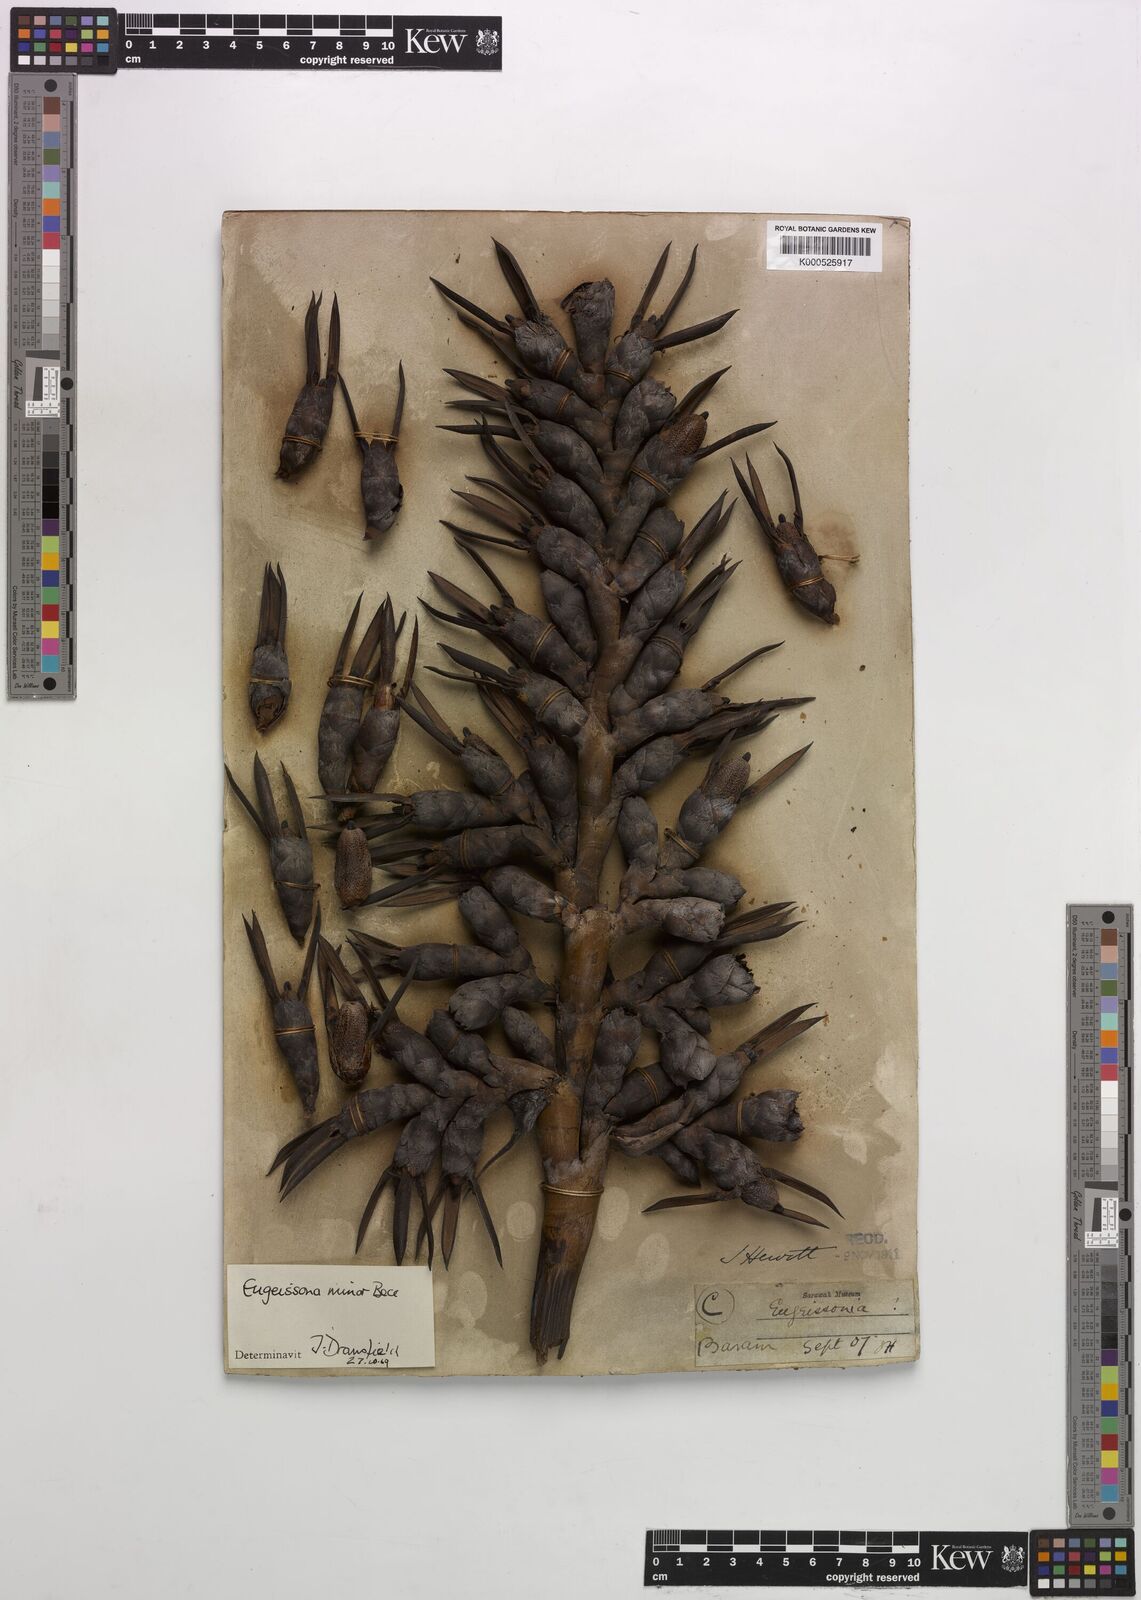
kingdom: Plantae
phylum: Tracheophyta
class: Liliopsida
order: Arecales
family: Arecaceae
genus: Eugeissona
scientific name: Eugeissona minor
